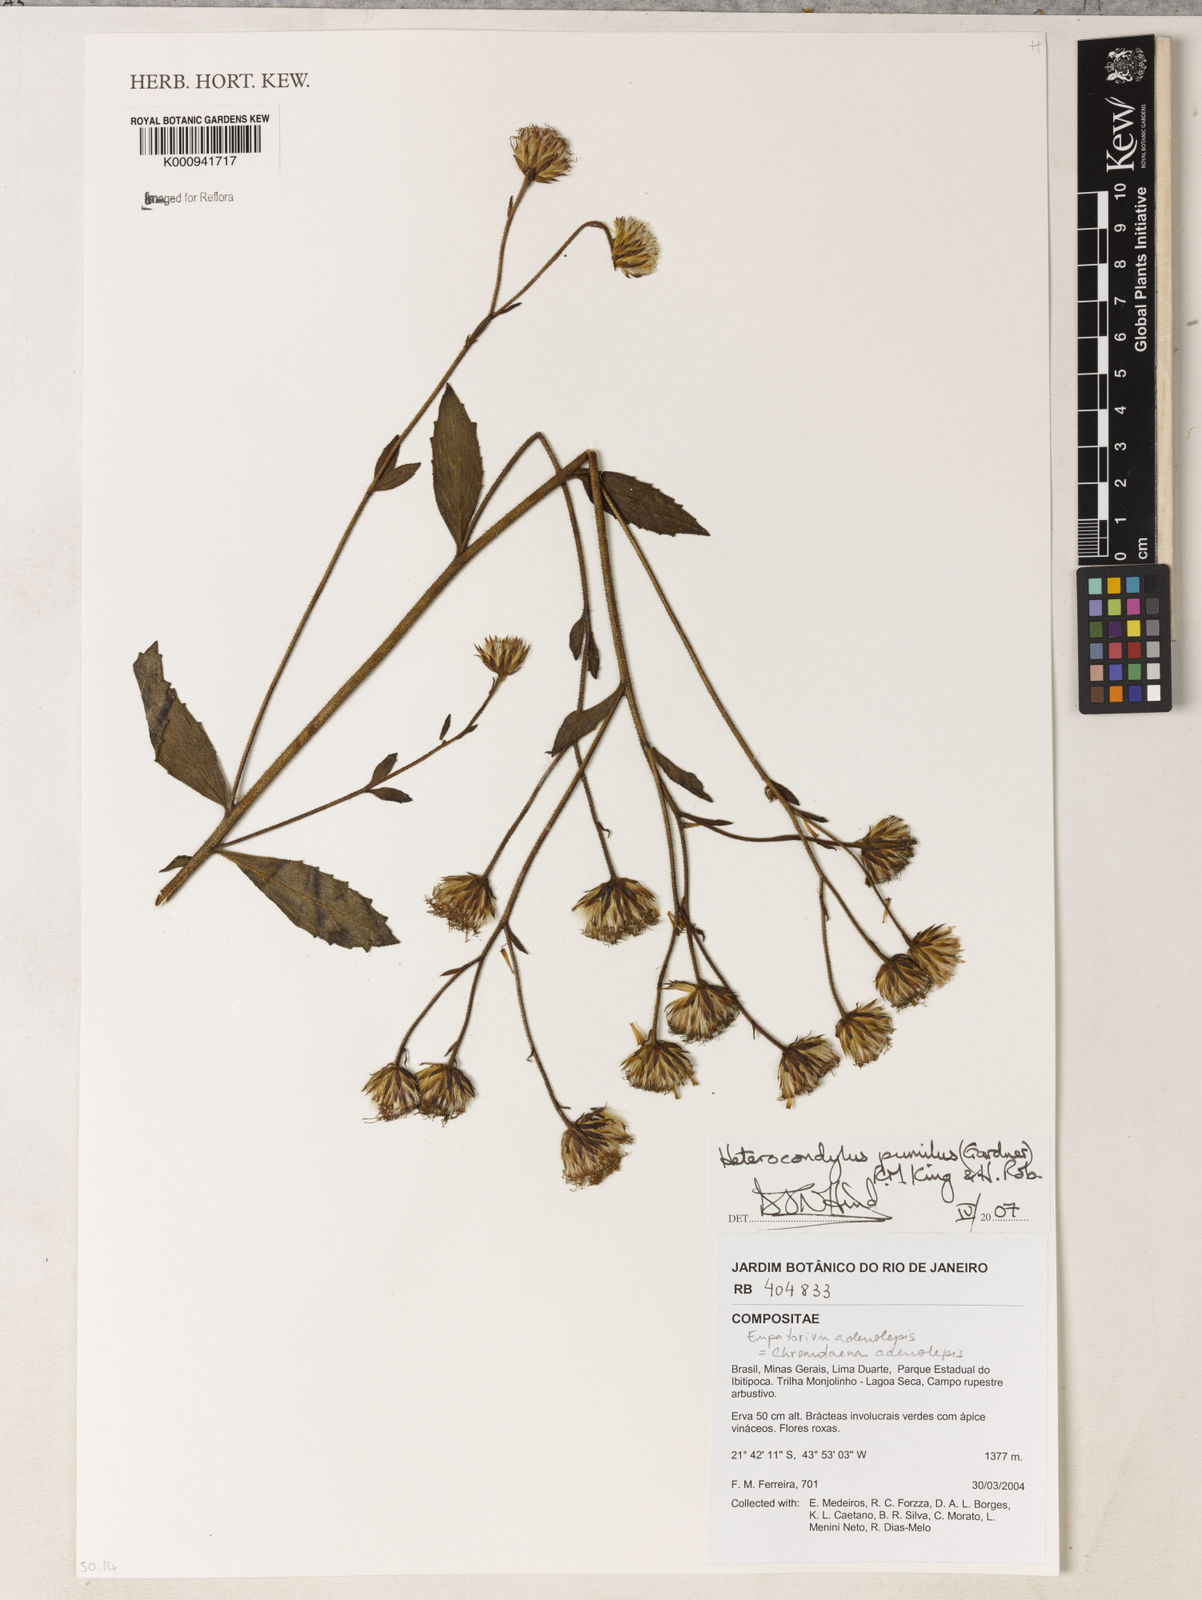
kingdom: Plantae
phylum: Tracheophyta
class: Magnoliopsida
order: Asterales
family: Asteraceae
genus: Heterocondylus
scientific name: Heterocondylus pumilus
